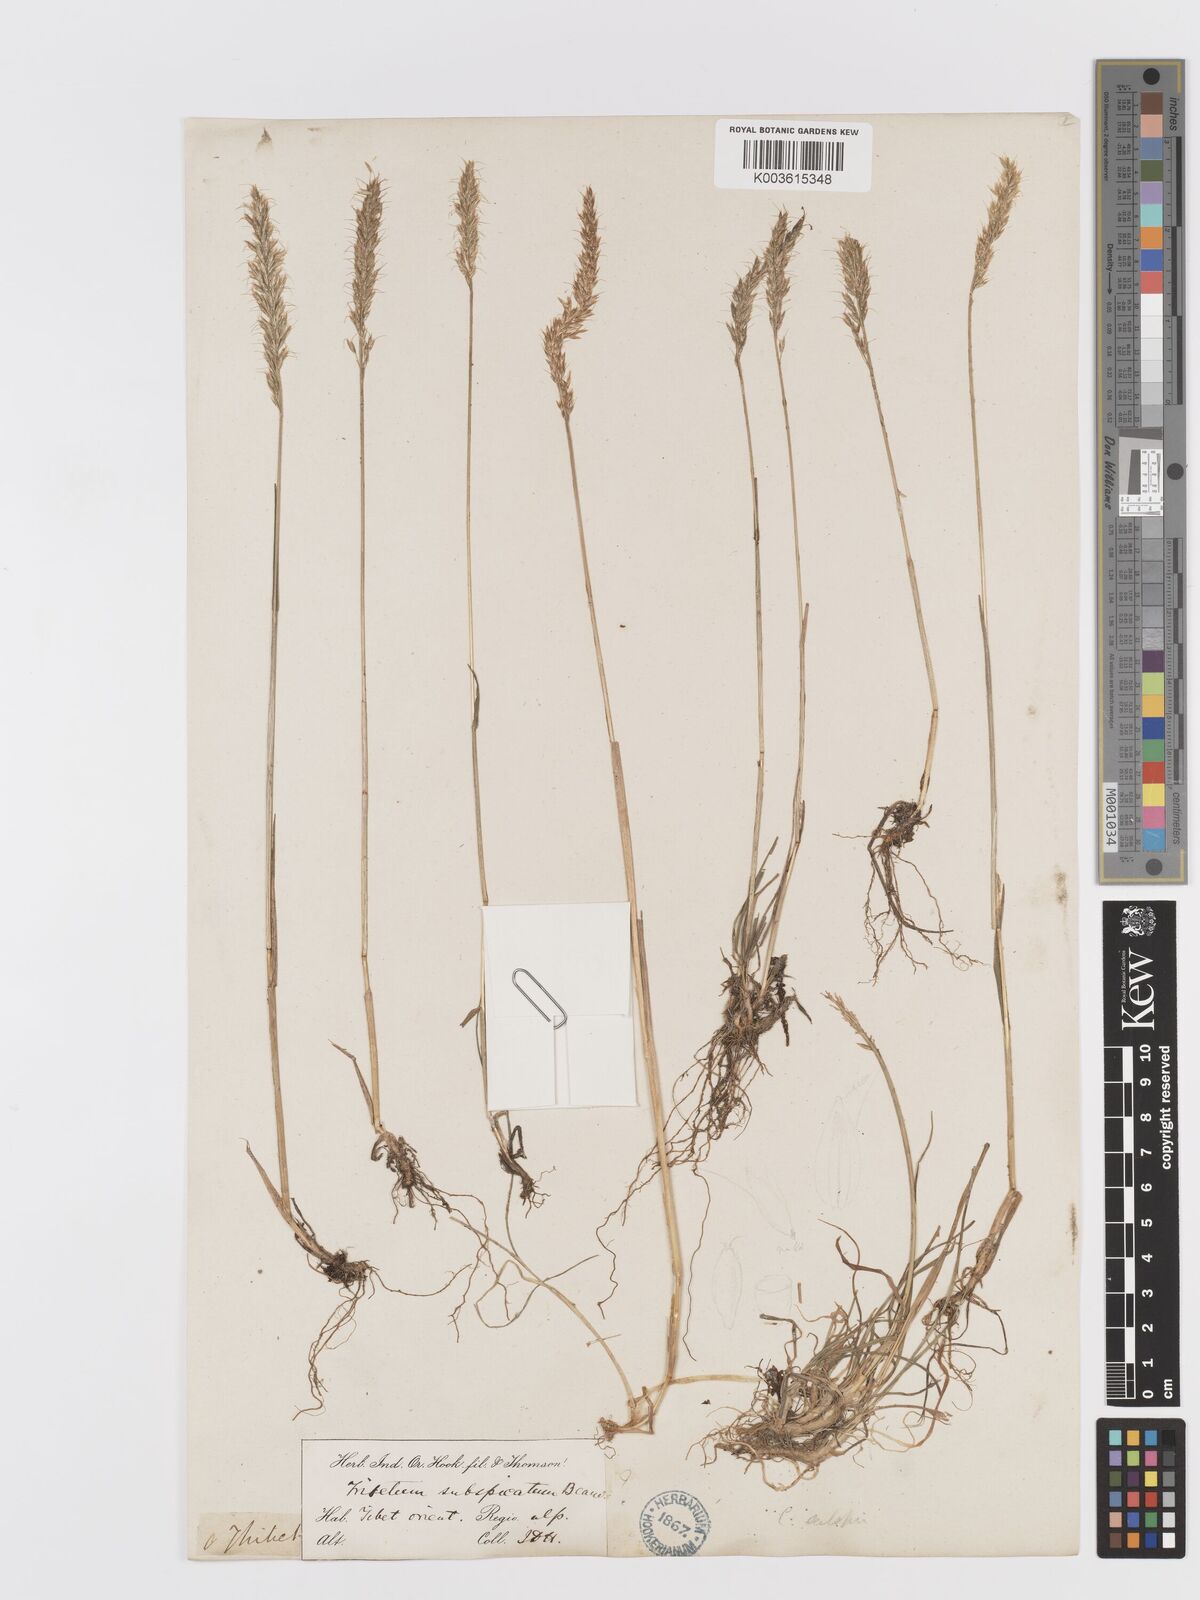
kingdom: Plantae
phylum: Tracheophyta
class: Liliopsida
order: Poales
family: Poaceae
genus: Trisetum
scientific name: Trisetum clarkei
